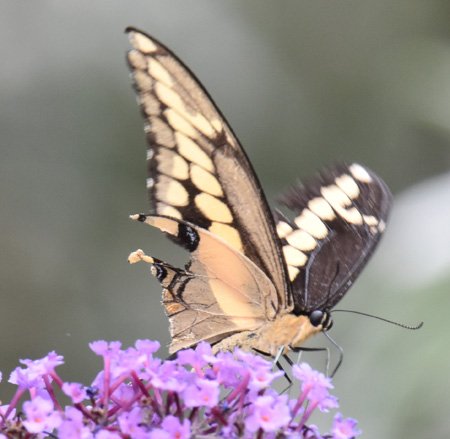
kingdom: Animalia
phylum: Arthropoda
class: Insecta
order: Lepidoptera
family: Papilionidae
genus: Papilio
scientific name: Papilio cresphontes
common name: Eastern Giant Swallowtail
